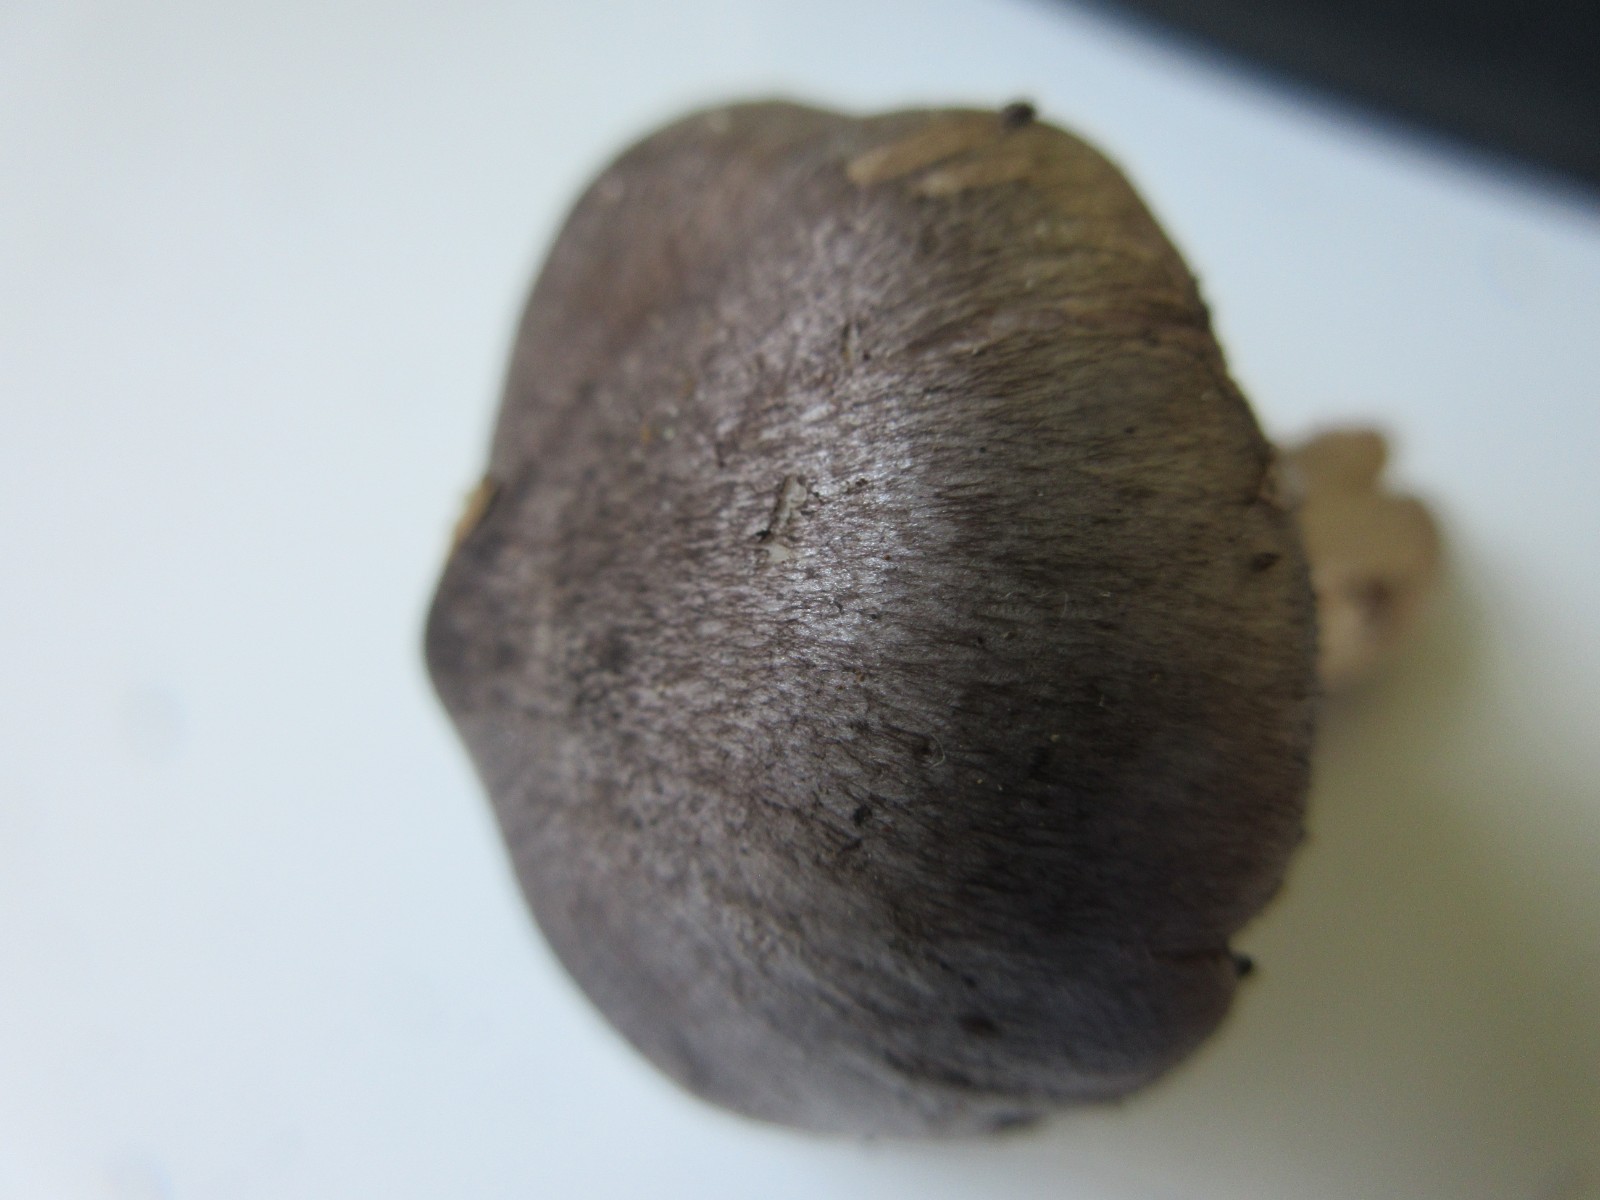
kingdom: Fungi
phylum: Basidiomycota
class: Agaricomycetes
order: Agaricales
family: Tricholomataceae
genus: Tricholoma
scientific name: Tricholoma
